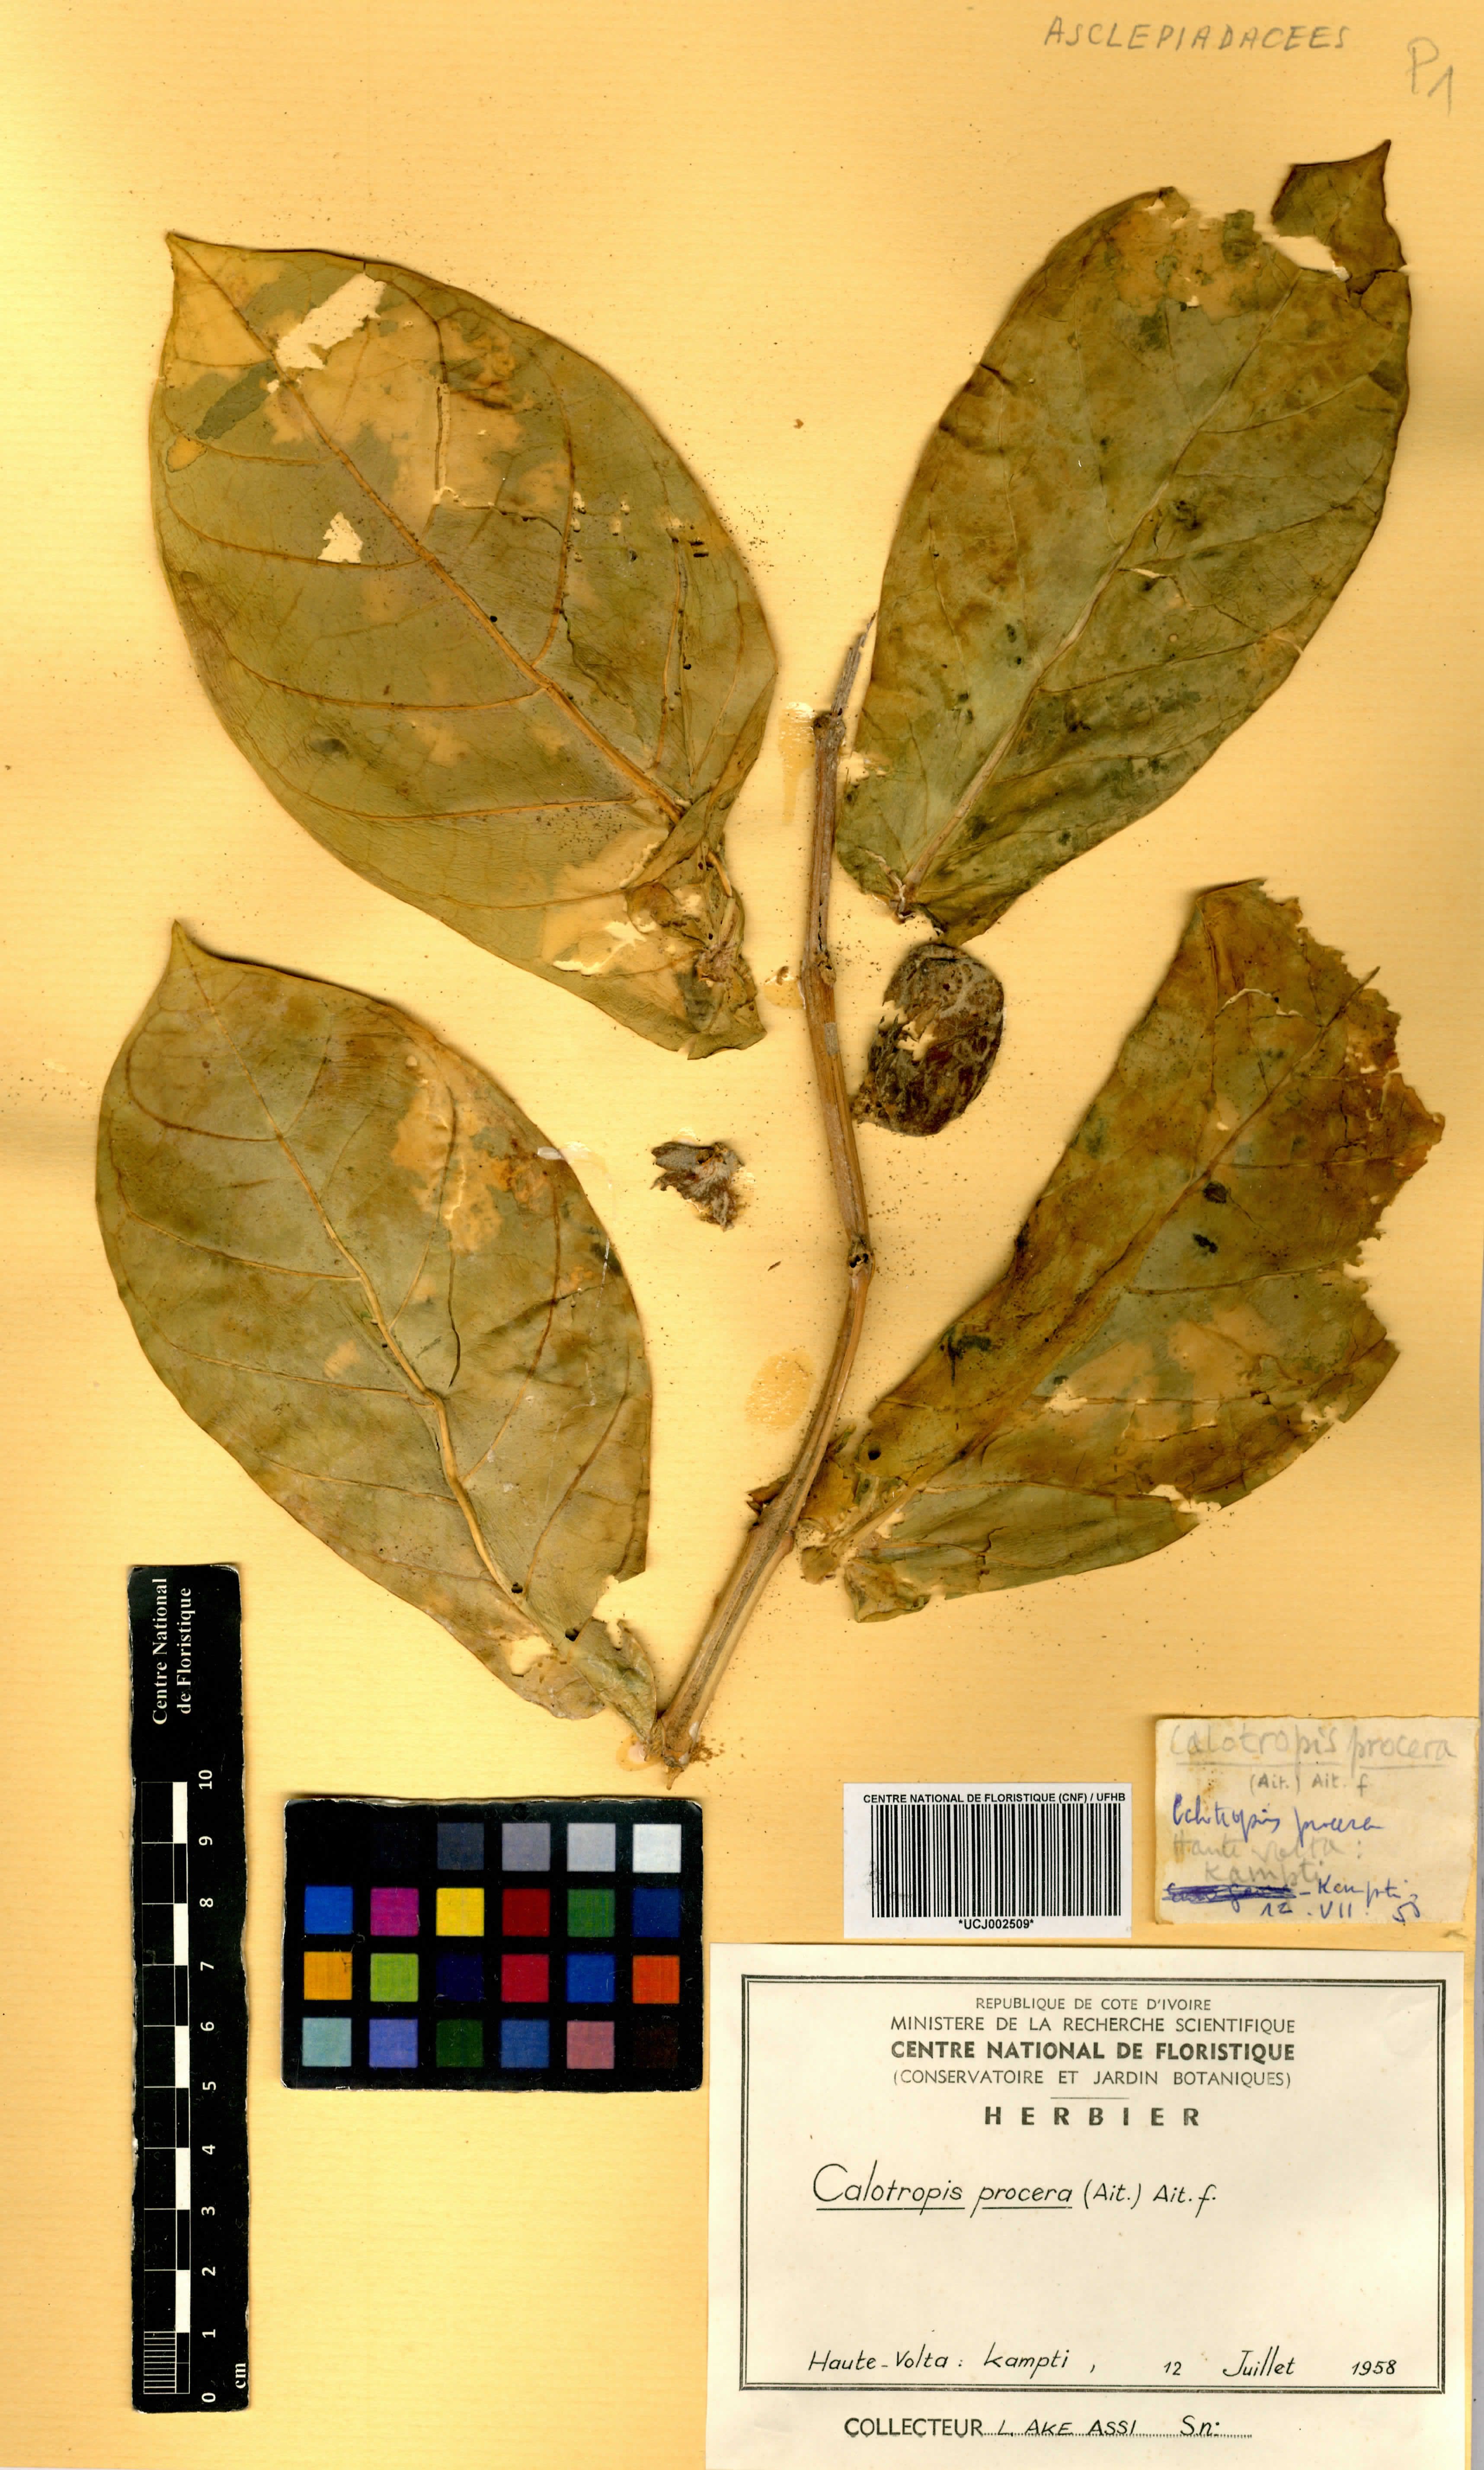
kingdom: Plantae
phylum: Tracheophyta
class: Magnoliopsida
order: Gentianales
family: Apocynaceae
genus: Calotropis
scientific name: Calotropis procera
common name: Roostertree
